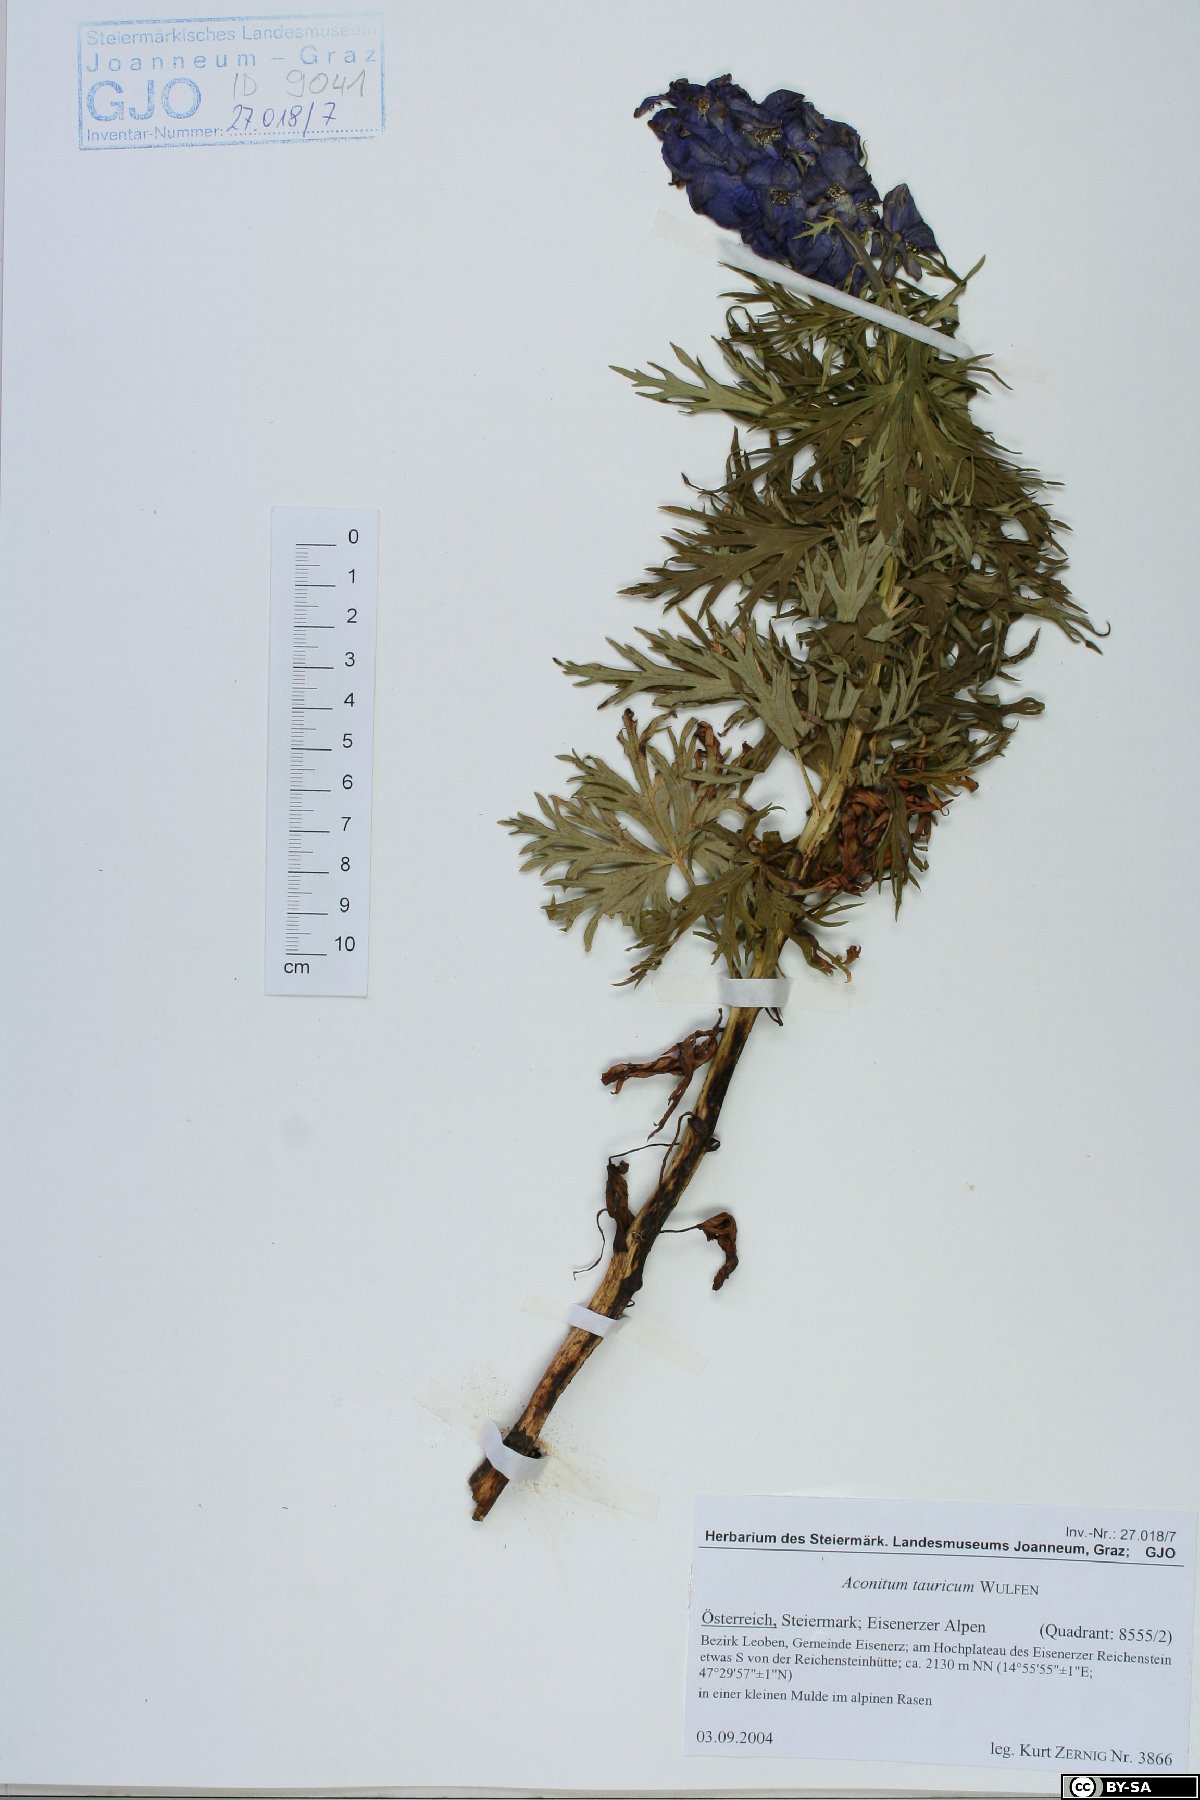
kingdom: Plantae
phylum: Tracheophyta
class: Magnoliopsida
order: Ranunculales
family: Ranunculaceae
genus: Aconitum
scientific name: Aconitum tauricum
